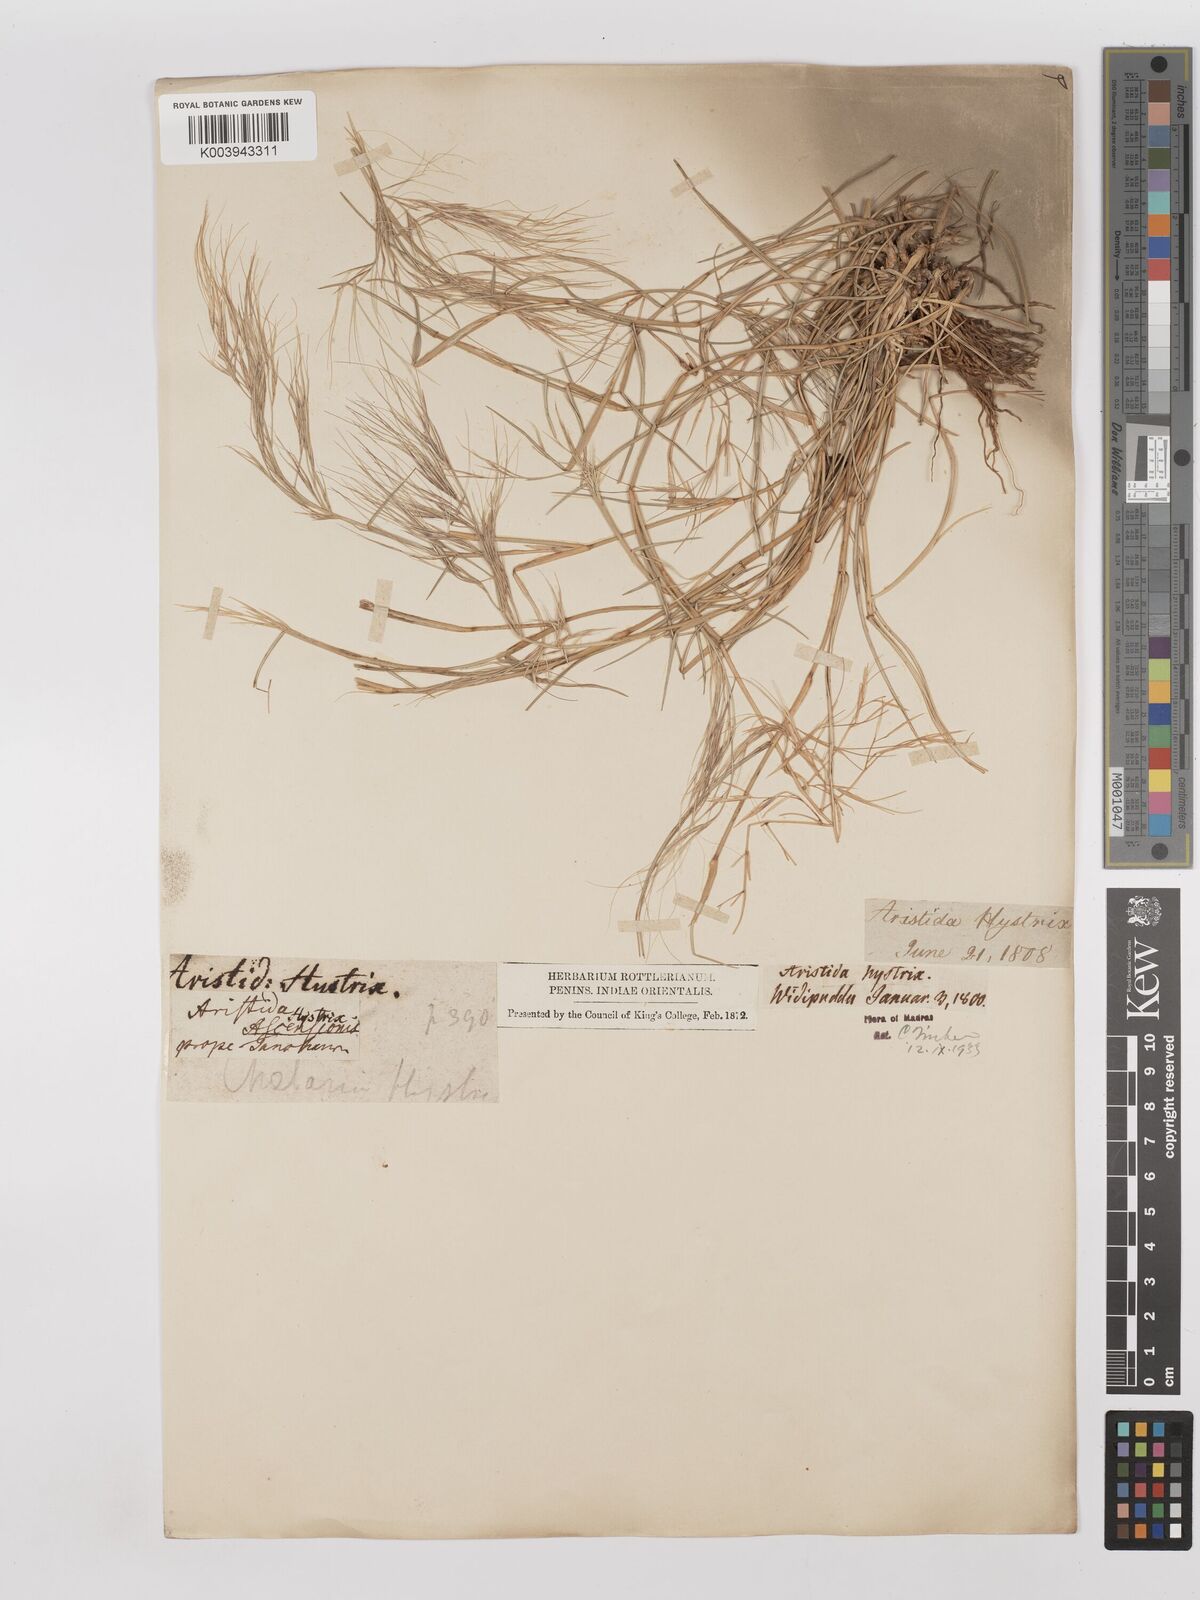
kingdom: Plantae
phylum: Tracheophyta
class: Liliopsida
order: Poales
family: Poaceae
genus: Aristida
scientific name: Aristida hystrix
